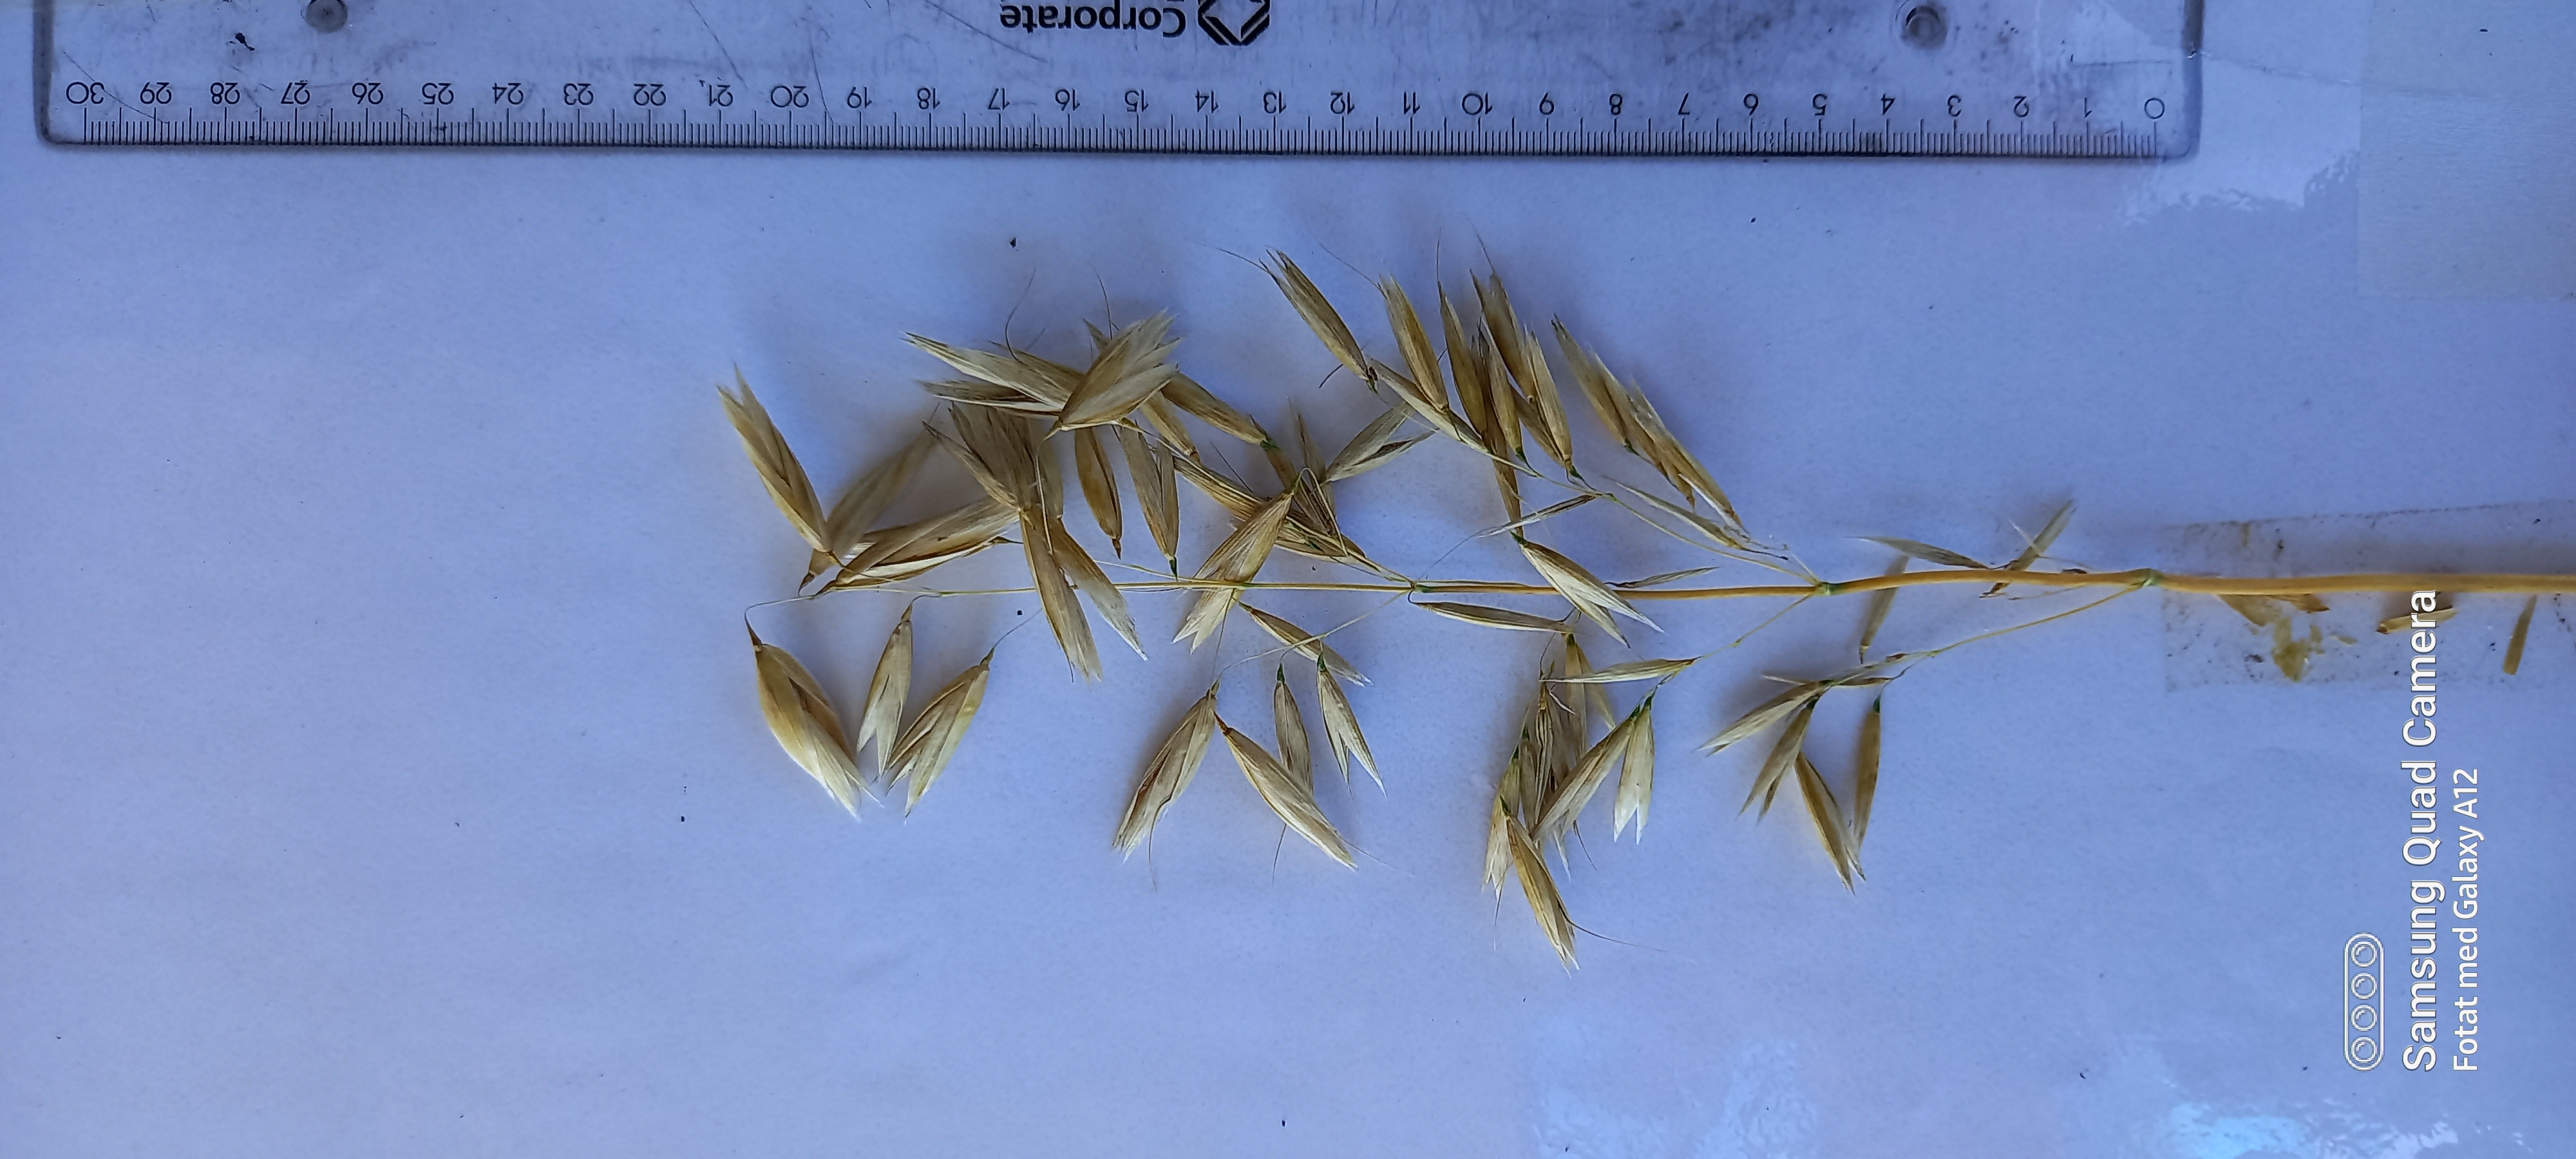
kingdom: Plantae
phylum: Tracheophyta
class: Liliopsida
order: Poales
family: Poaceae
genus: Avena
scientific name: Avena sativa
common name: Oat
